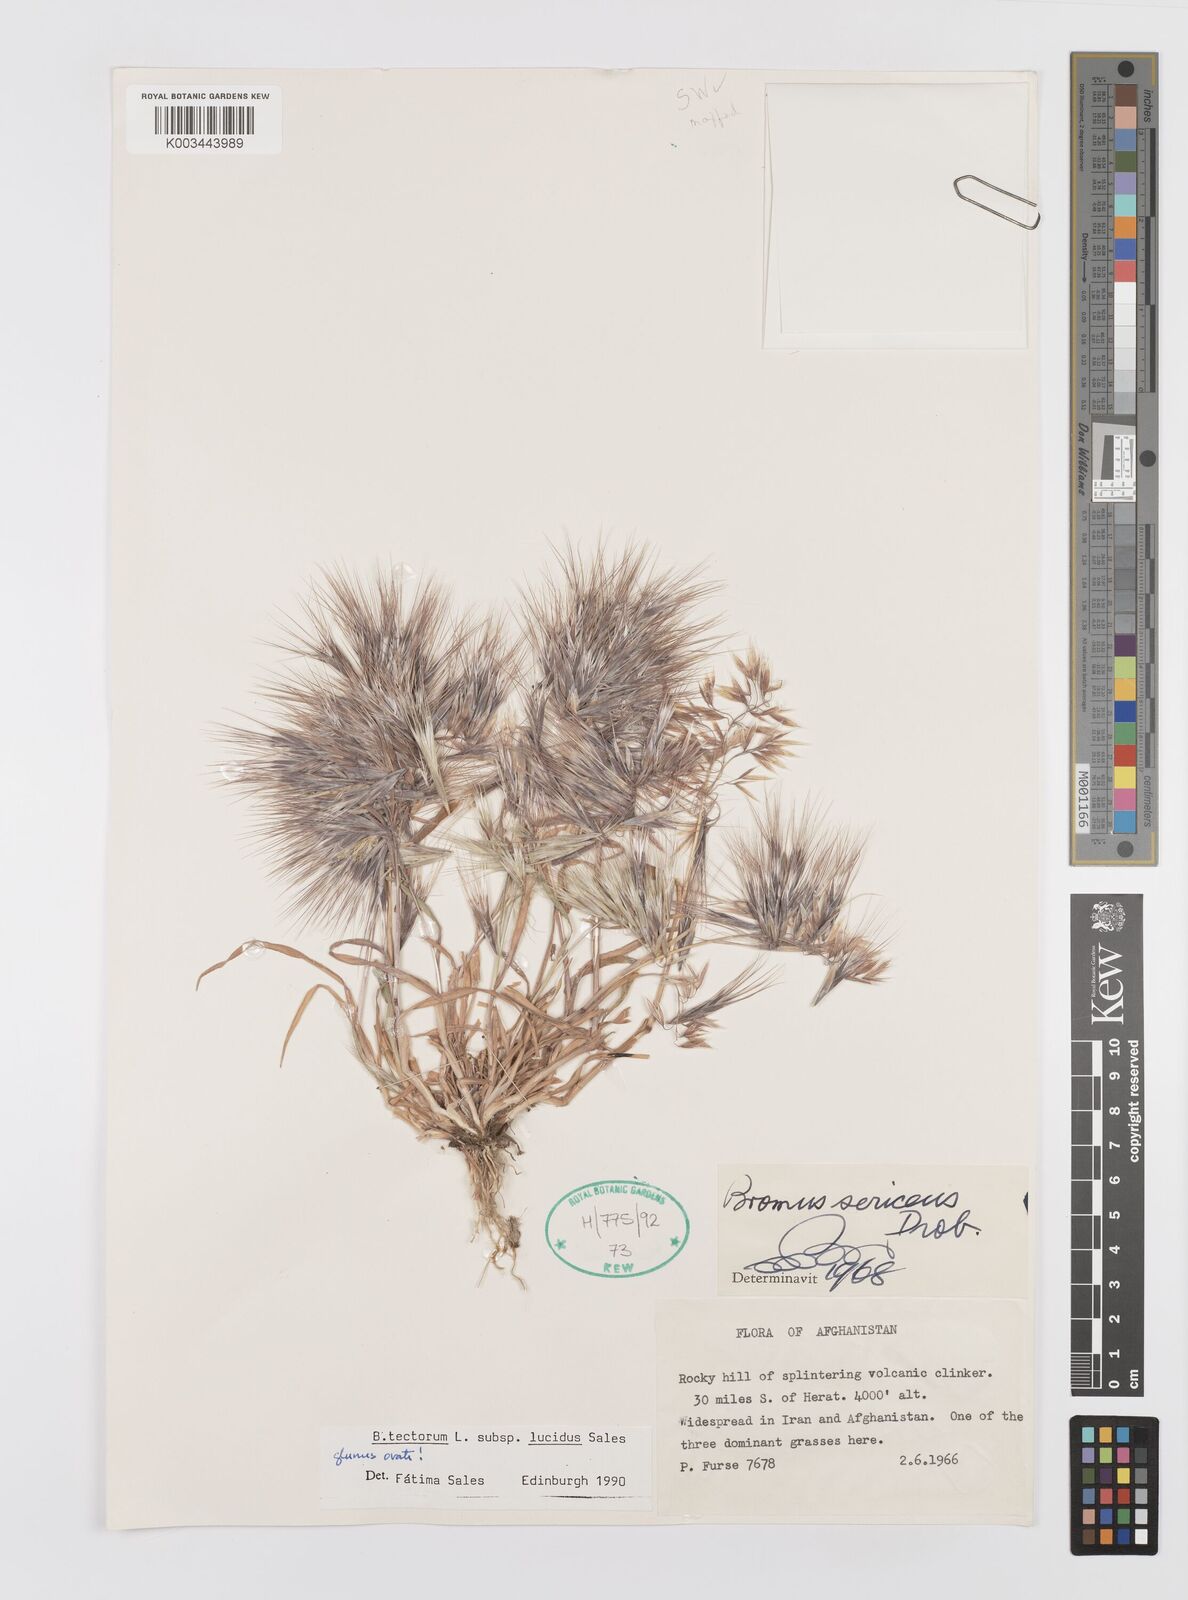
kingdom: Plantae
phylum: Tracheophyta
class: Liliopsida
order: Poales
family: Poaceae
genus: Bromus
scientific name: Bromus moeszii
